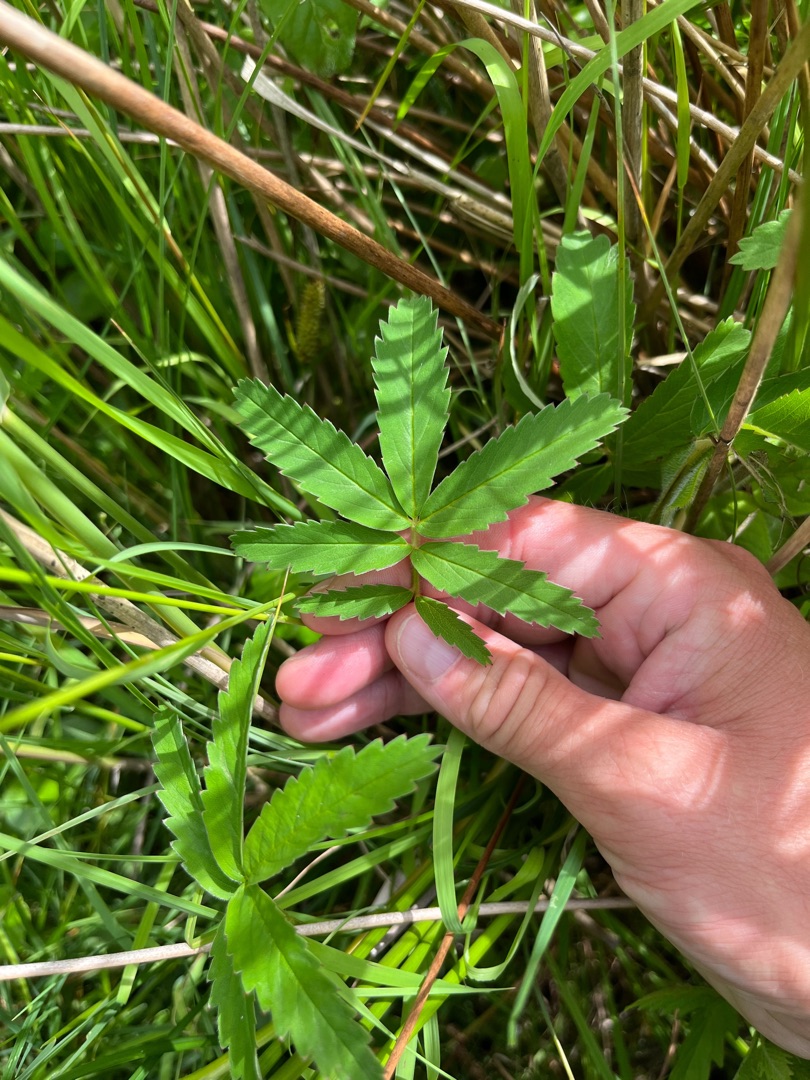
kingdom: Plantae
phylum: Tracheophyta
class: Magnoliopsida
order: Rosales
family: Rosaceae
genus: Comarum
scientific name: Comarum palustre
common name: Kragefod
